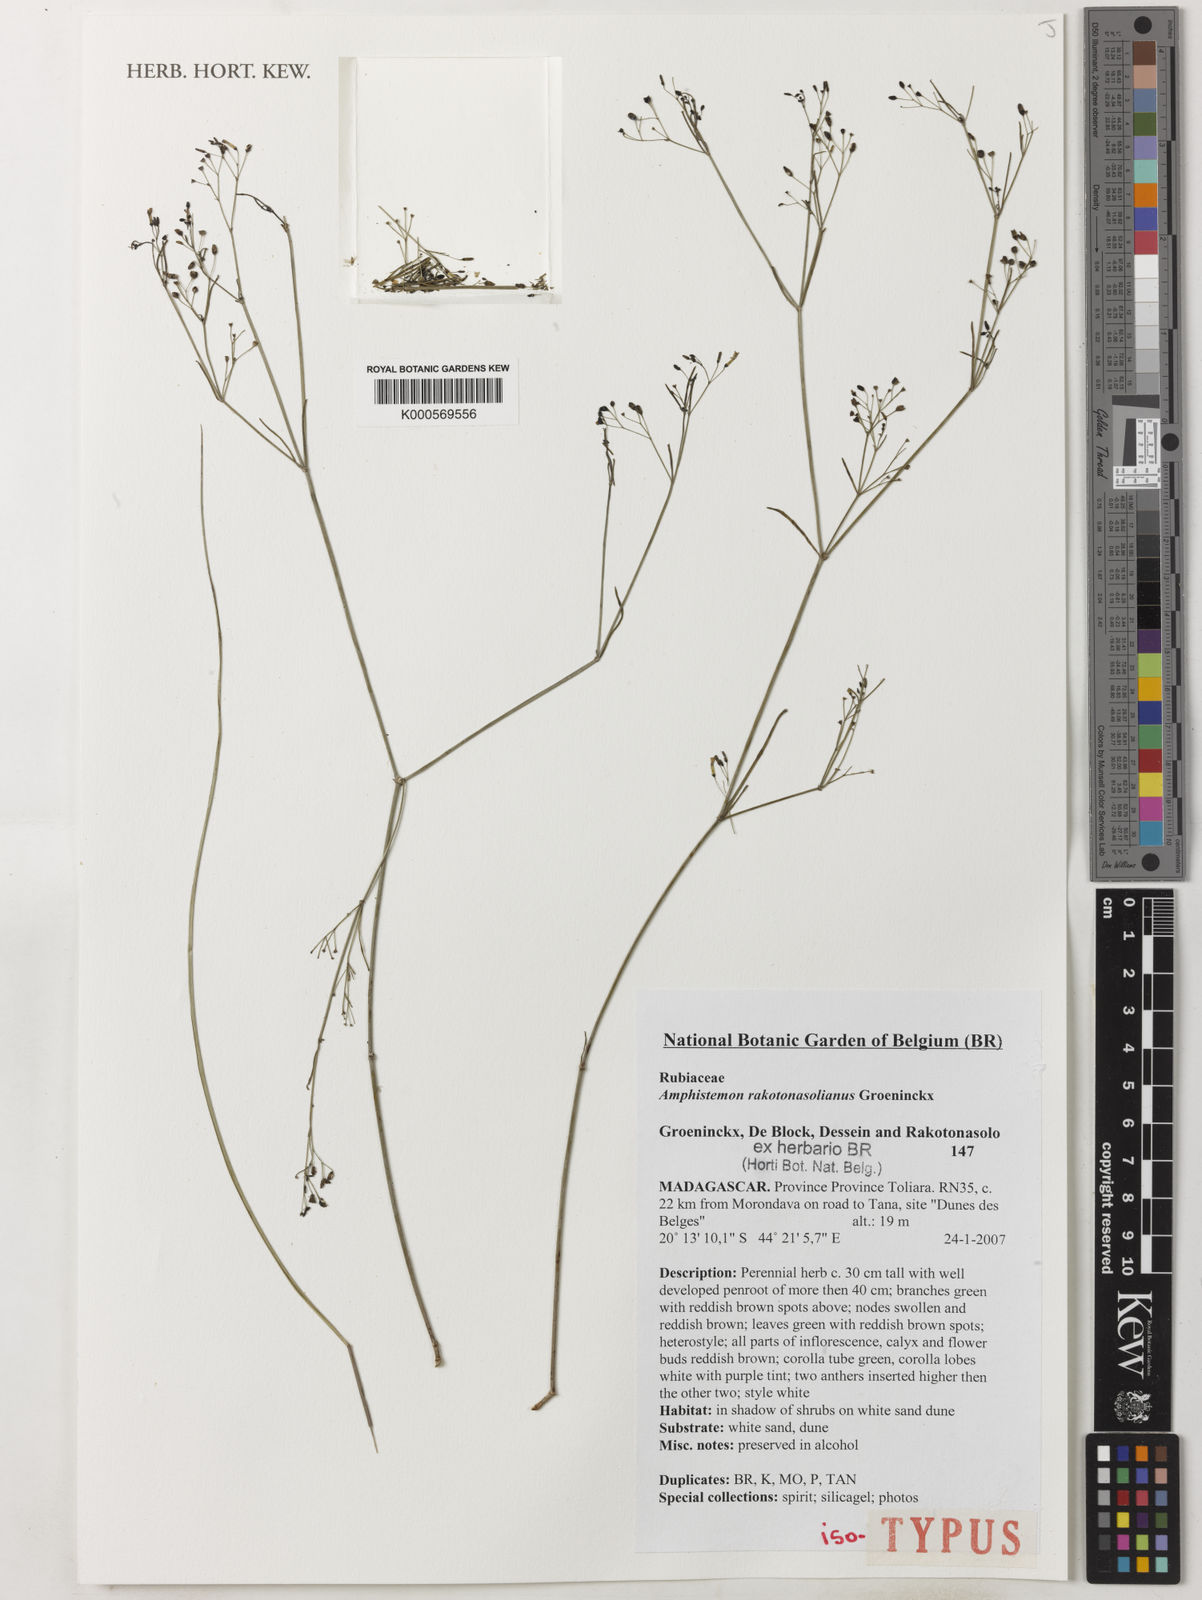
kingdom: Plantae
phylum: Tracheophyta
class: Magnoliopsida
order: Gentianales
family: Rubiaceae
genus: Amphistemon
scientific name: Amphistemon rakotonasolianus
